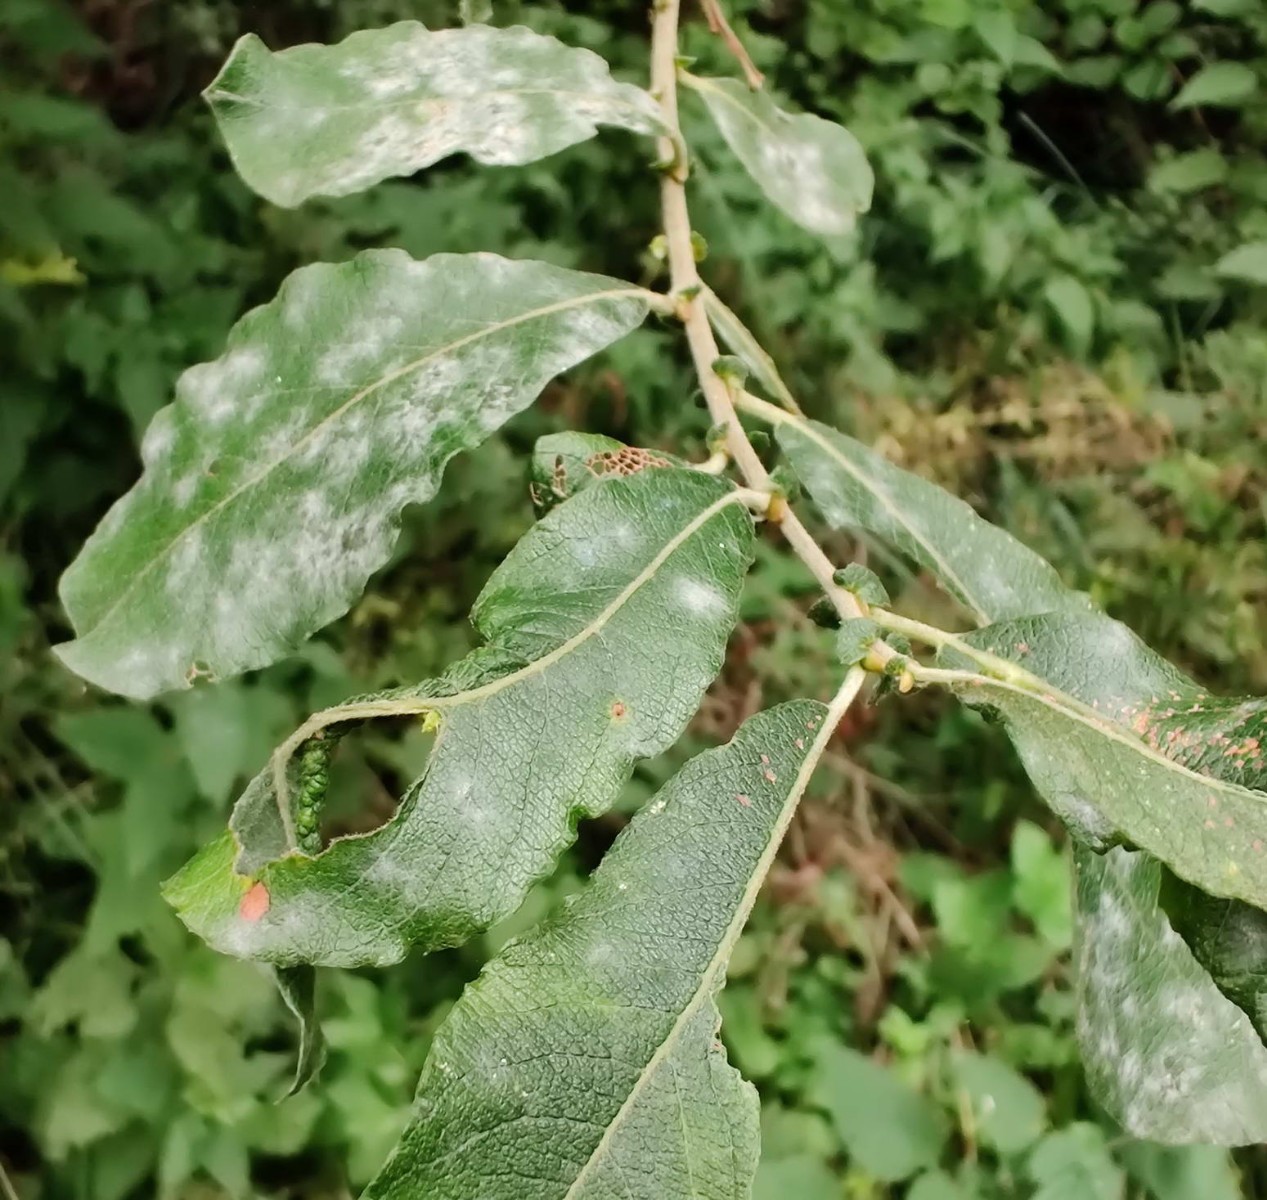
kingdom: Fungi
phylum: Ascomycota
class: Leotiomycetes
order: Helotiales
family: Erysiphaceae
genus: Erysiphe
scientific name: Erysiphe adunca
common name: pile-meldug
